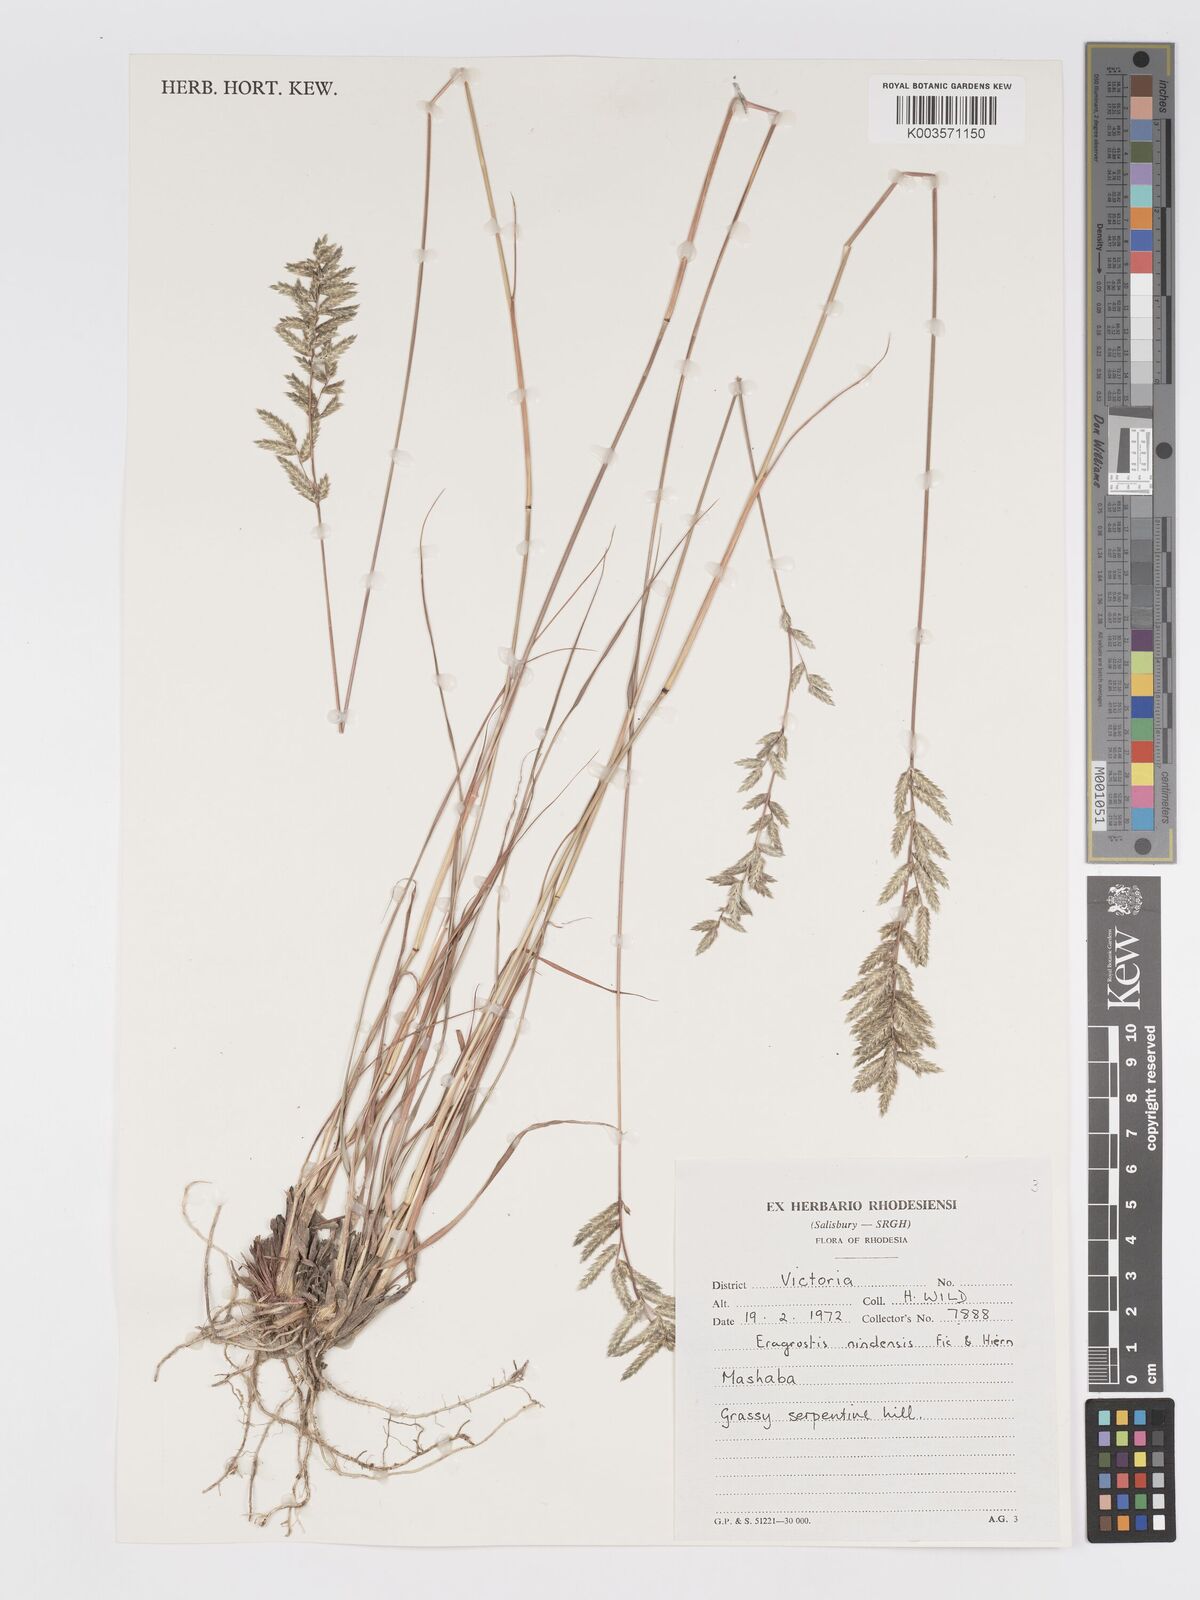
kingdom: Plantae
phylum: Tracheophyta
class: Liliopsida
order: Poales
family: Poaceae
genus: Eragrostis
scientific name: Eragrostis nindensis
